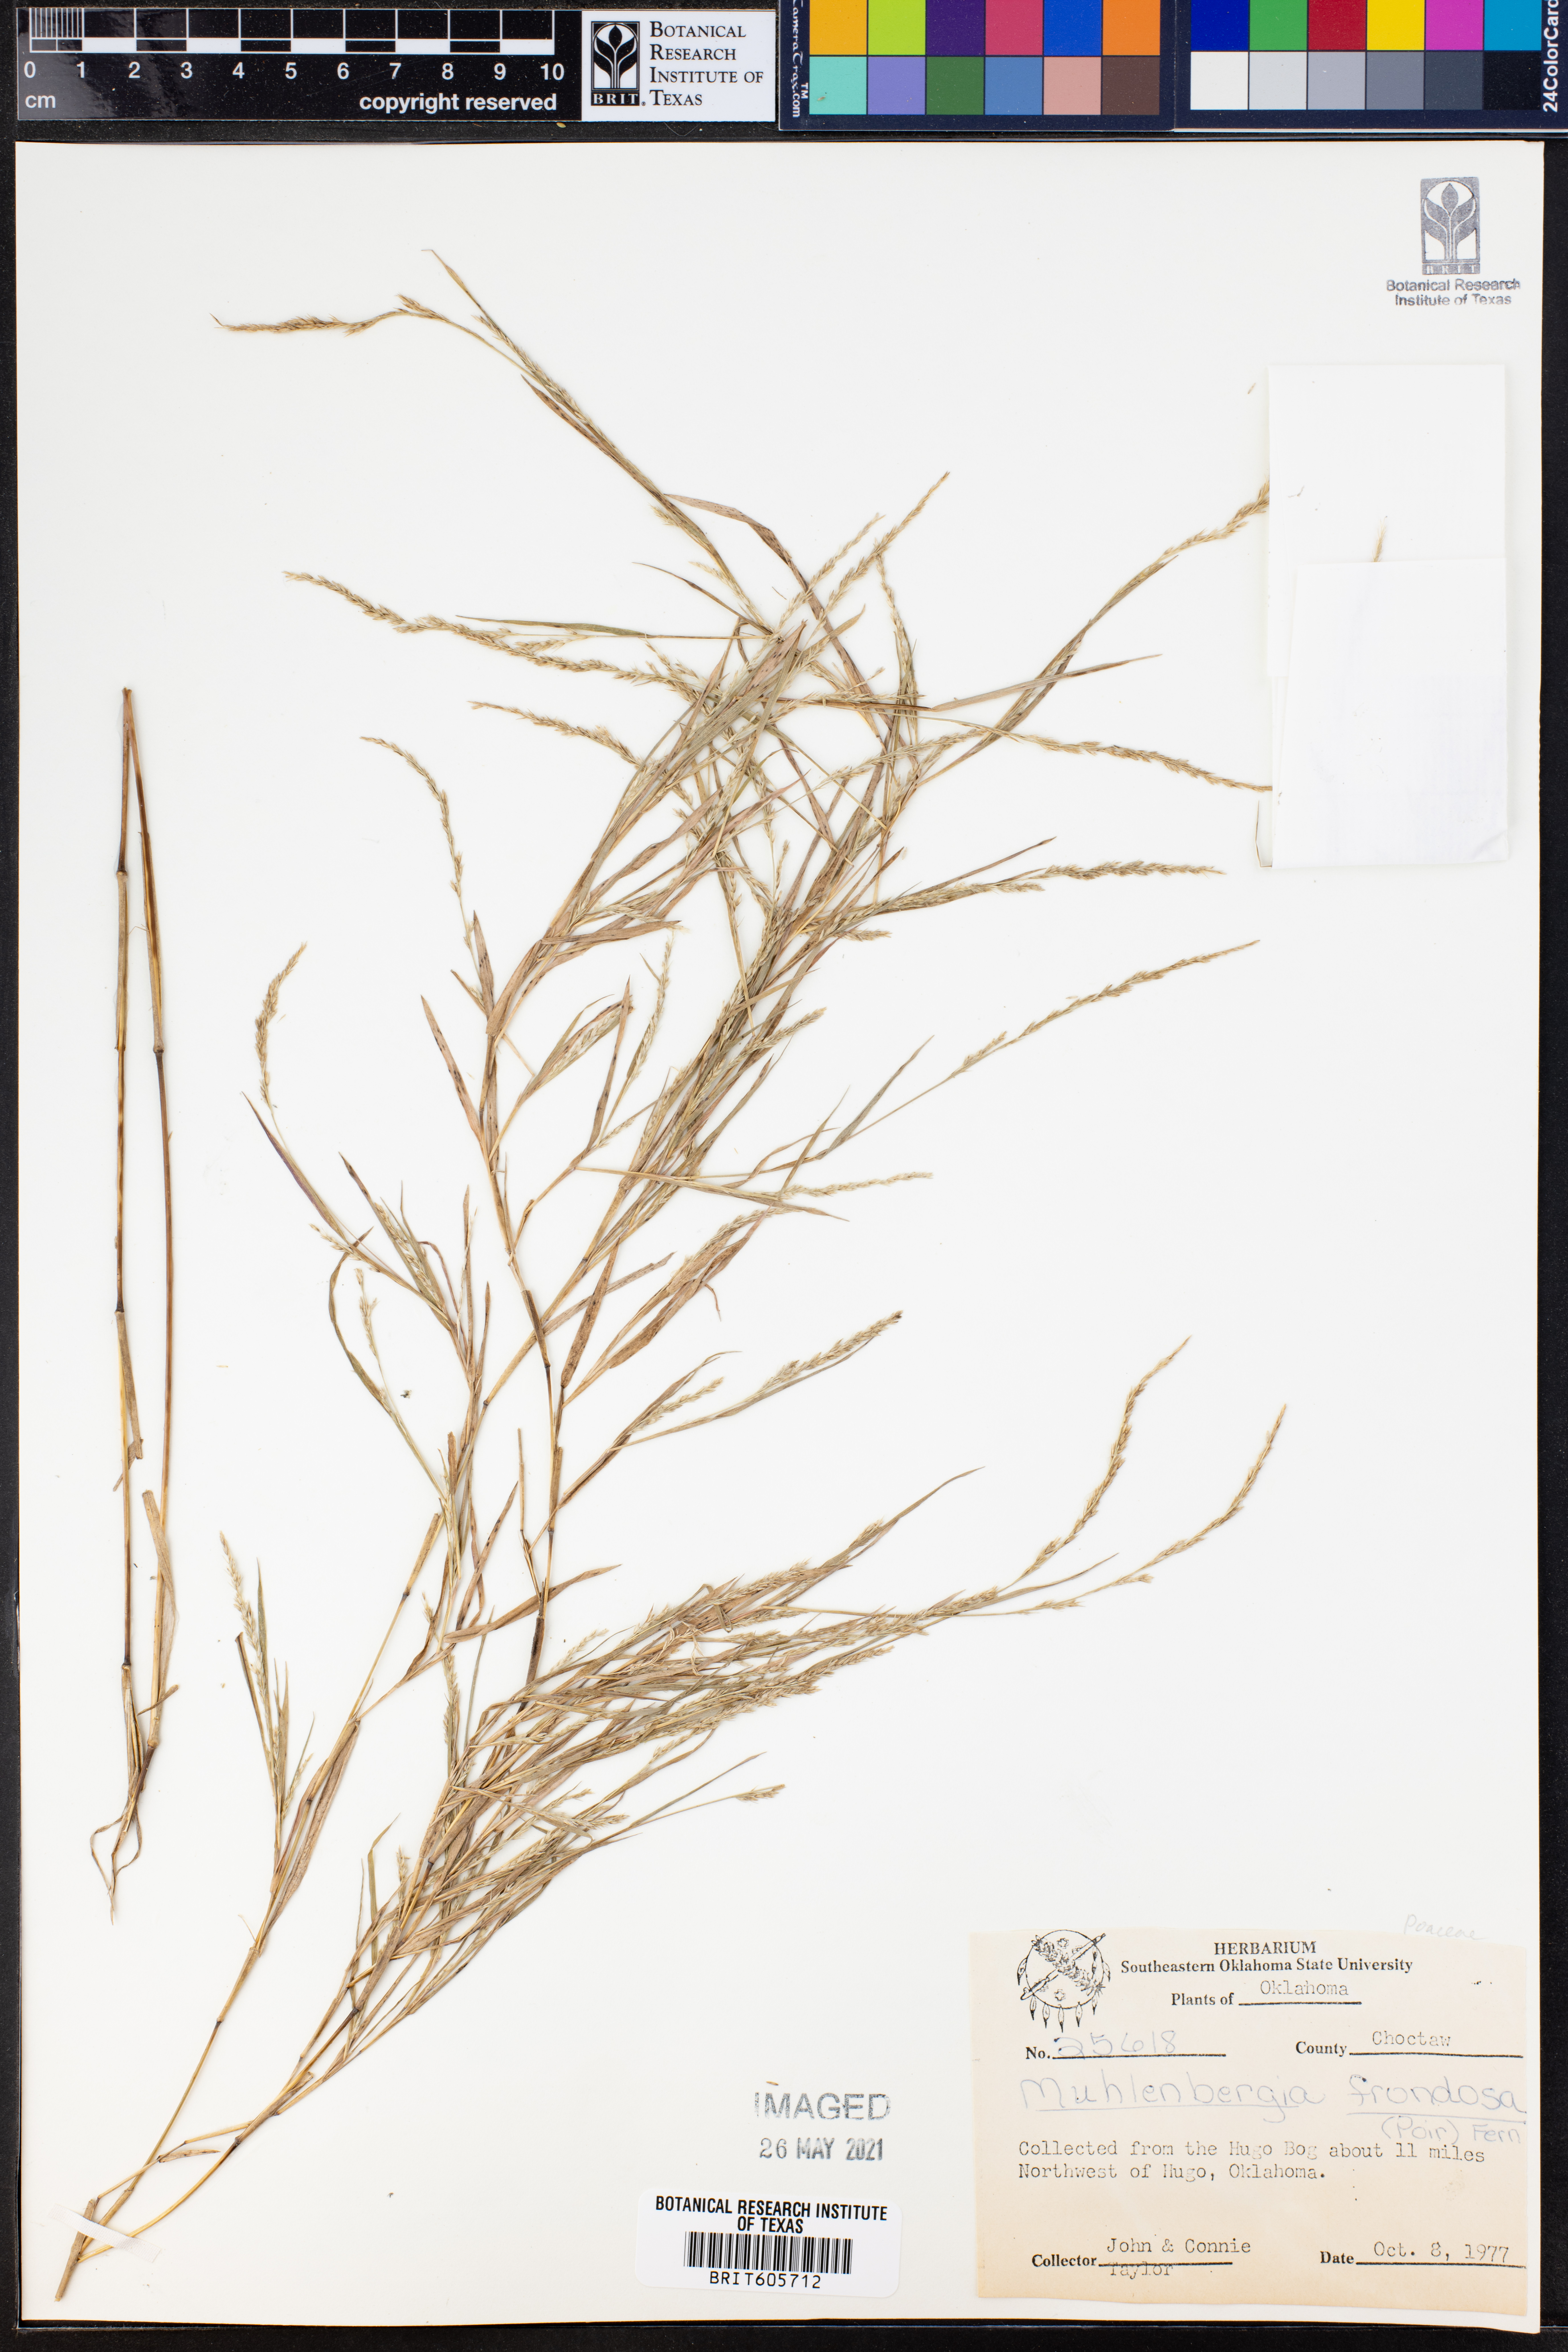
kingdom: Plantae
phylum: Tracheophyta
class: Liliopsida
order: Poales
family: Poaceae
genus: Muhlenbergia
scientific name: Muhlenbergia frondosa
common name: Common satingrass
